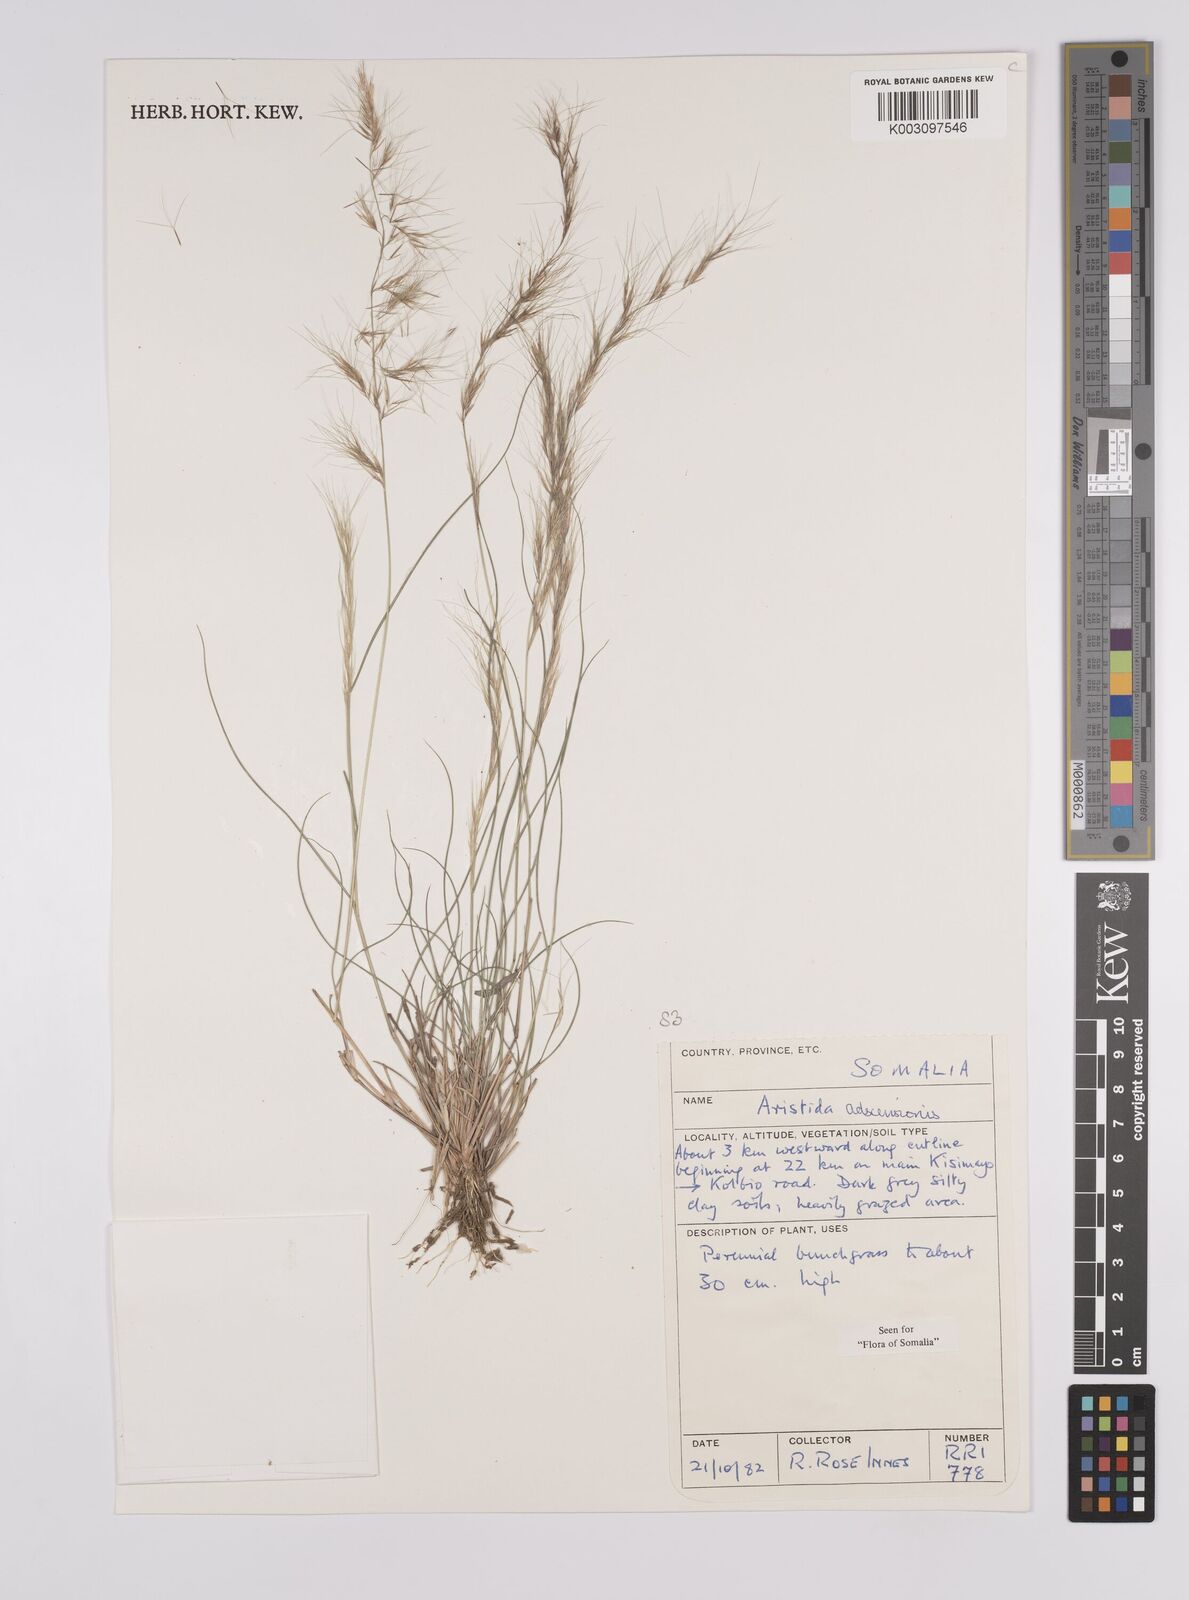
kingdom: Plantae
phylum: Tracheophyta
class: Liliopsida
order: Poales
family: Poaceae
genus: Aristida
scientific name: Aristida laevis
